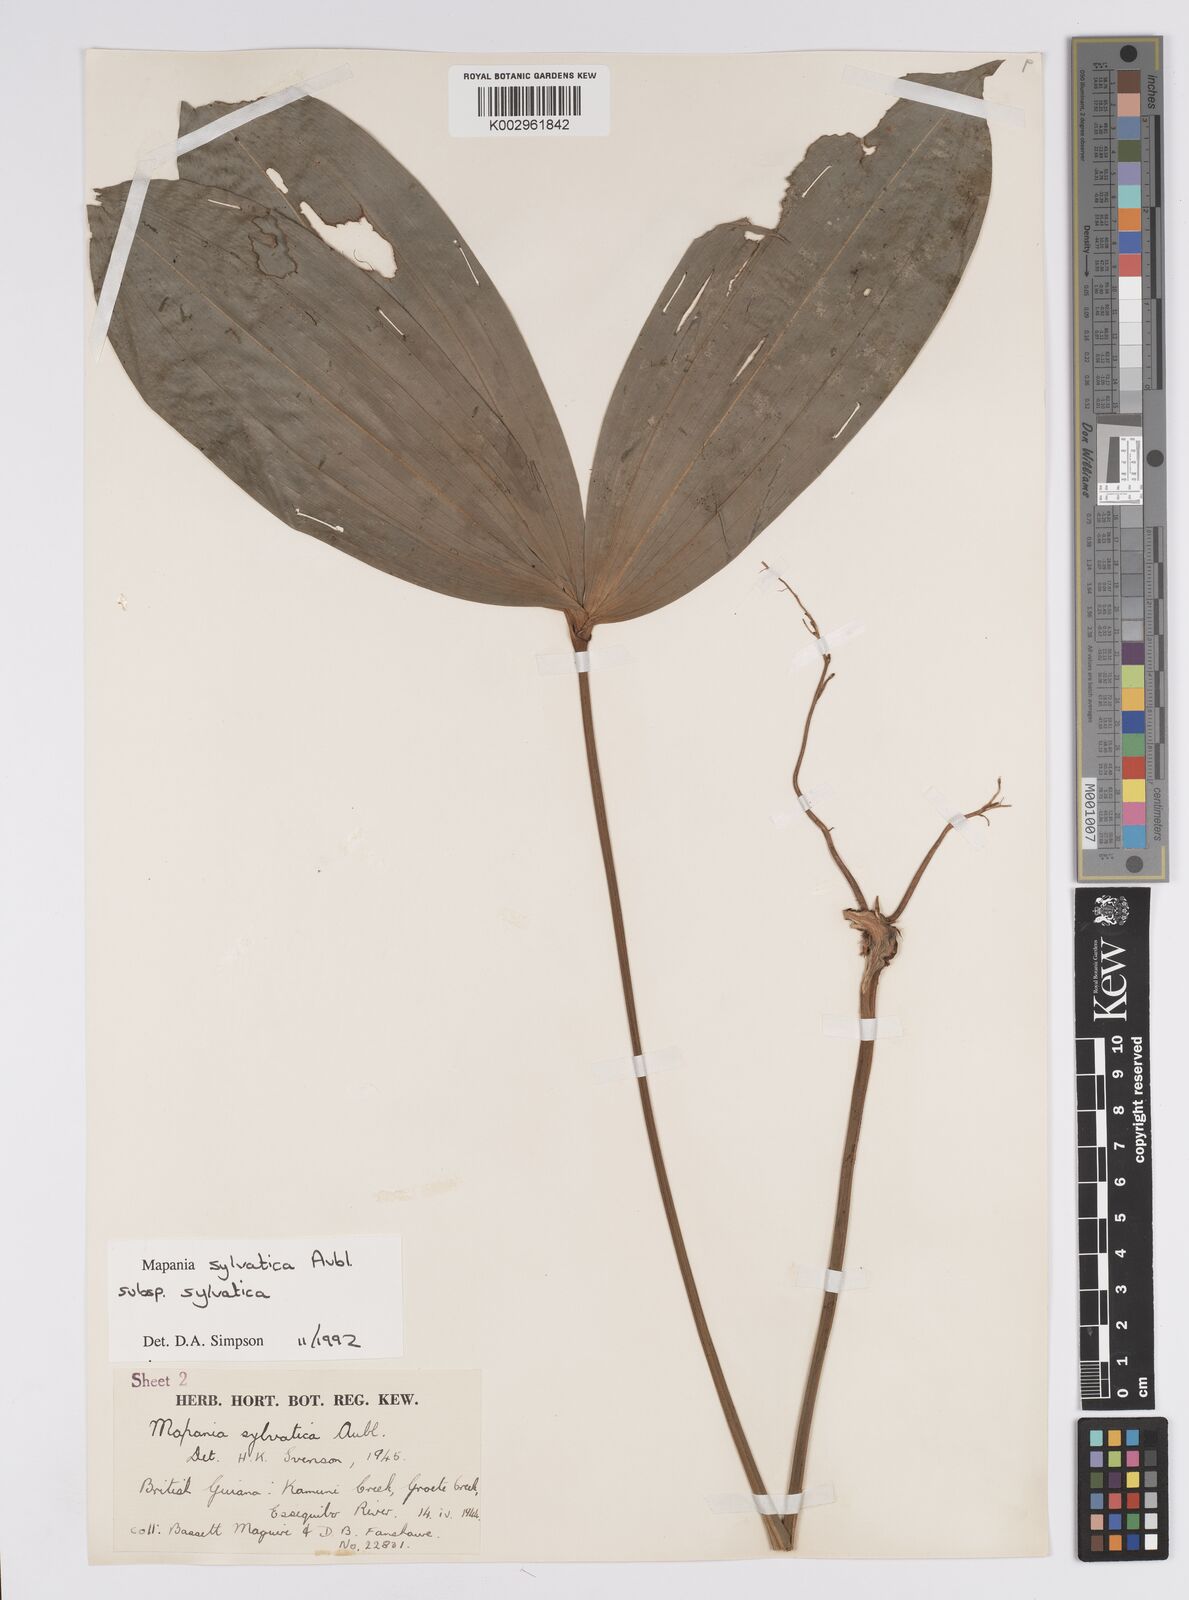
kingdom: Plantae
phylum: Tracheophyta
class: Liliopsida
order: Poales
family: Cyperaceae
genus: Mapania
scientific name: Mapania sylvatica
